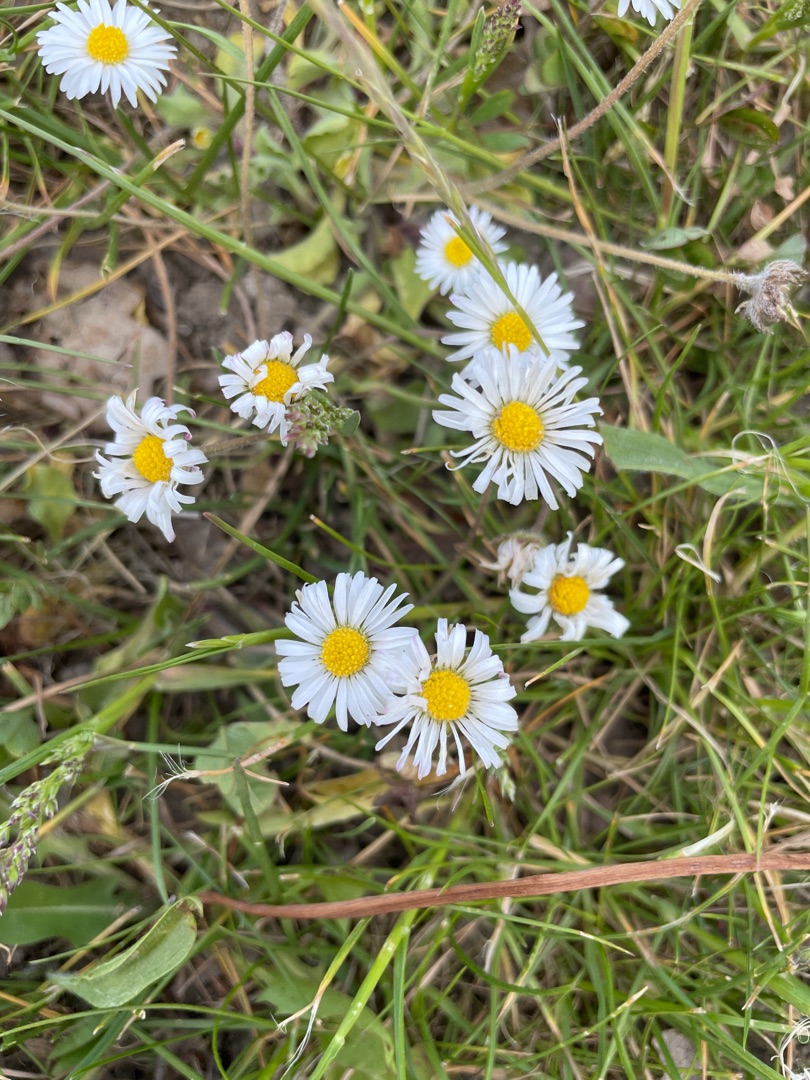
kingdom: Plantae
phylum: Tracheophyta
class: Magnoliopsida
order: Asterales
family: Asteraceae
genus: Bellis
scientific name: Bellis perennis
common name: Tusindfryd
